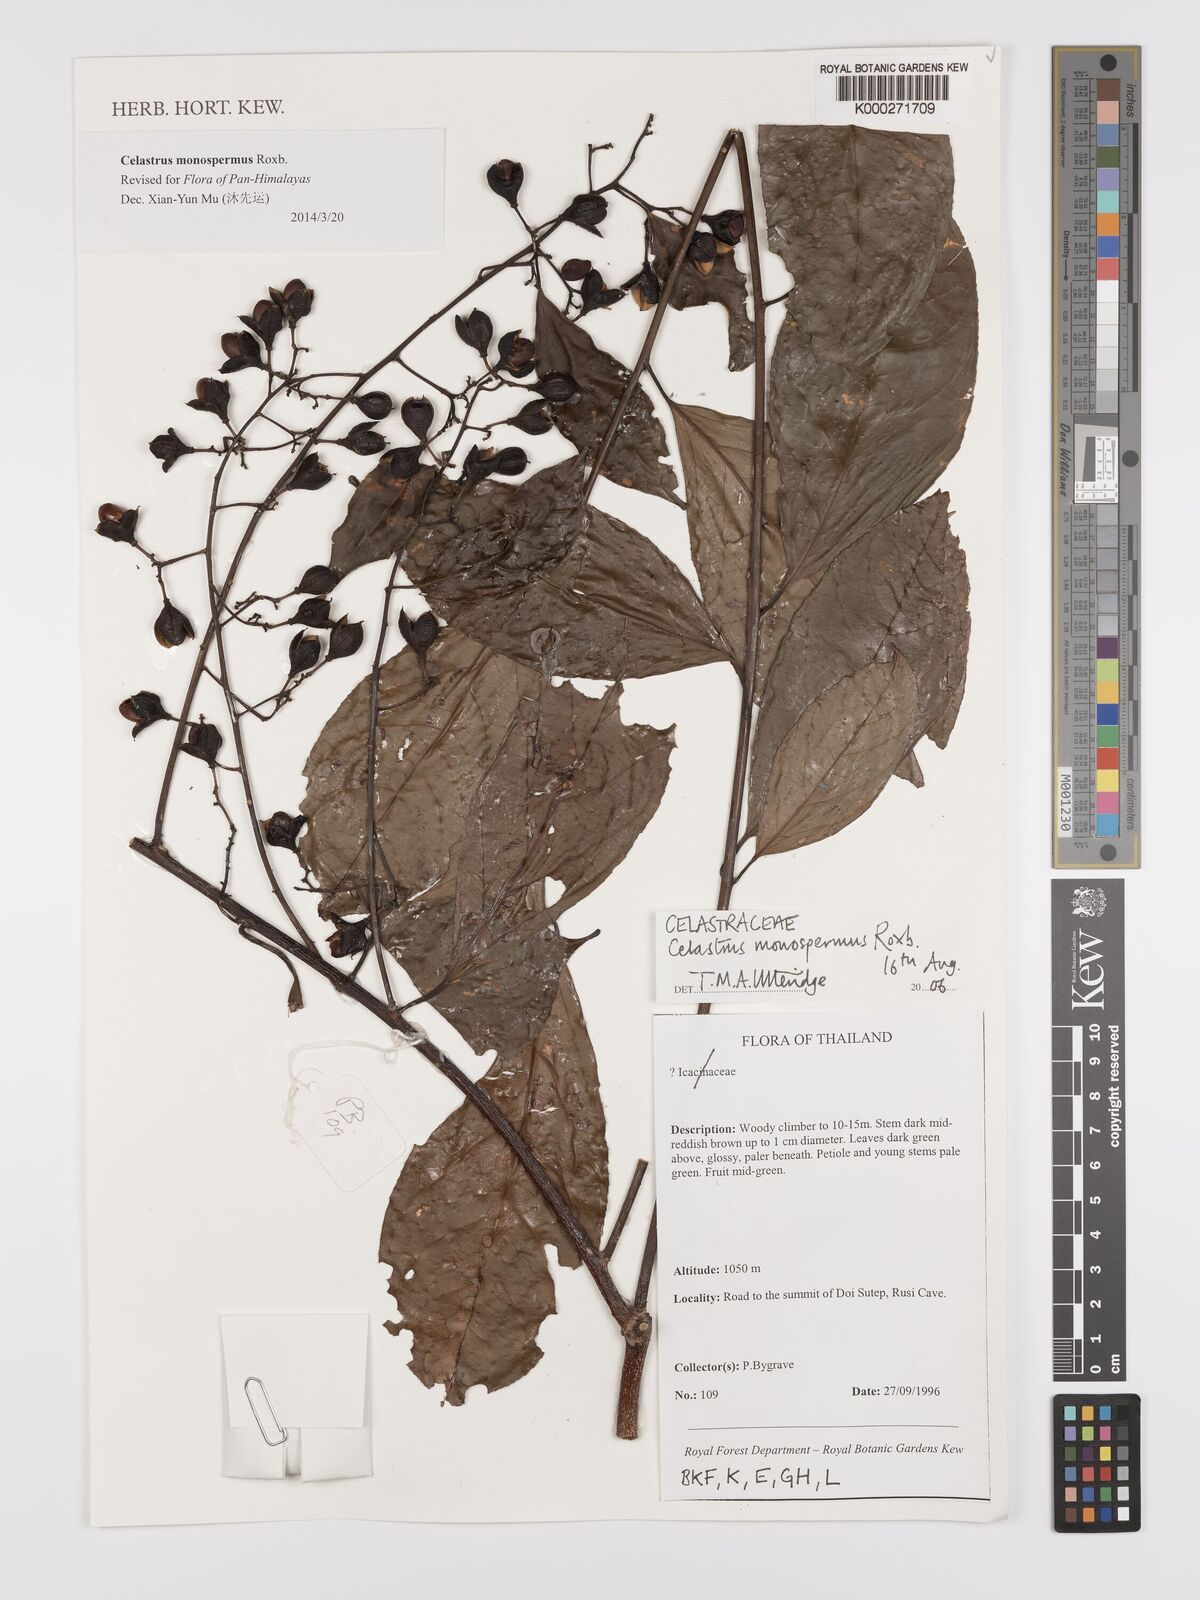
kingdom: Plantae
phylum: Tracheophyta
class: Magnoliopsida
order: Celastrales
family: Celastraceae
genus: Celastrus
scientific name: Celastrus monospermus
